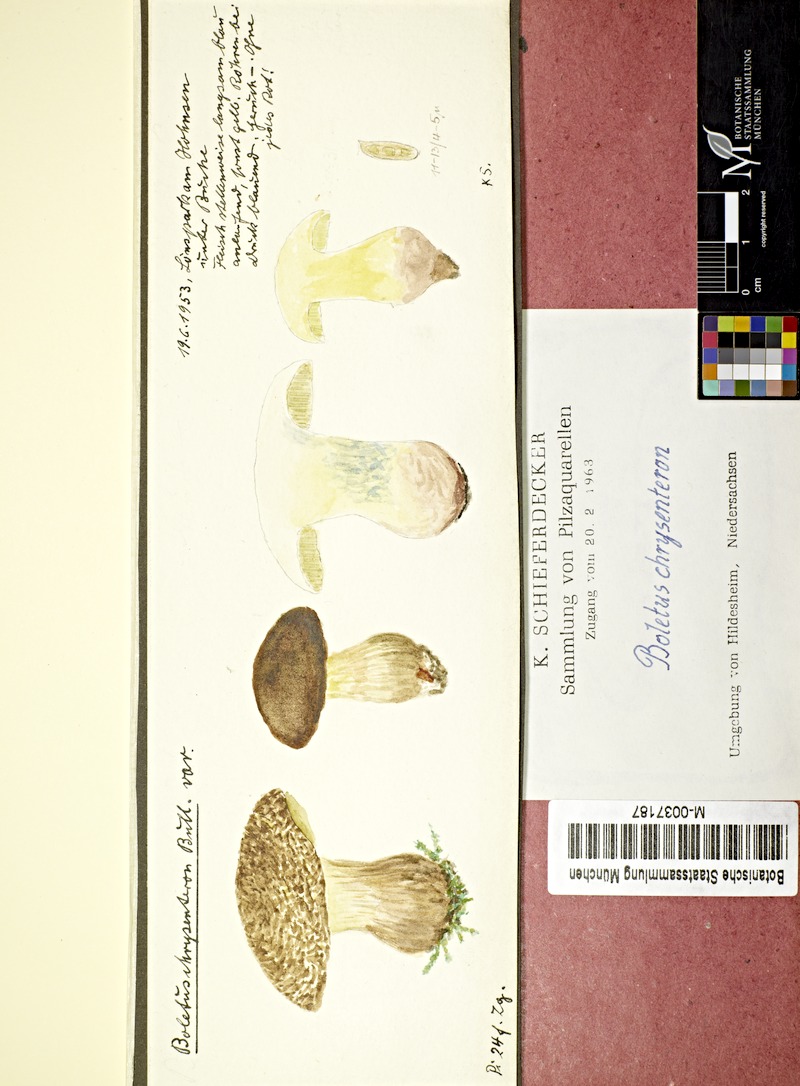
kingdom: Plantae
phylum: Tracheophyta
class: Magnoliopsida
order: Fagales
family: Fagaceae
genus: Fagus
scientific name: Fagus
